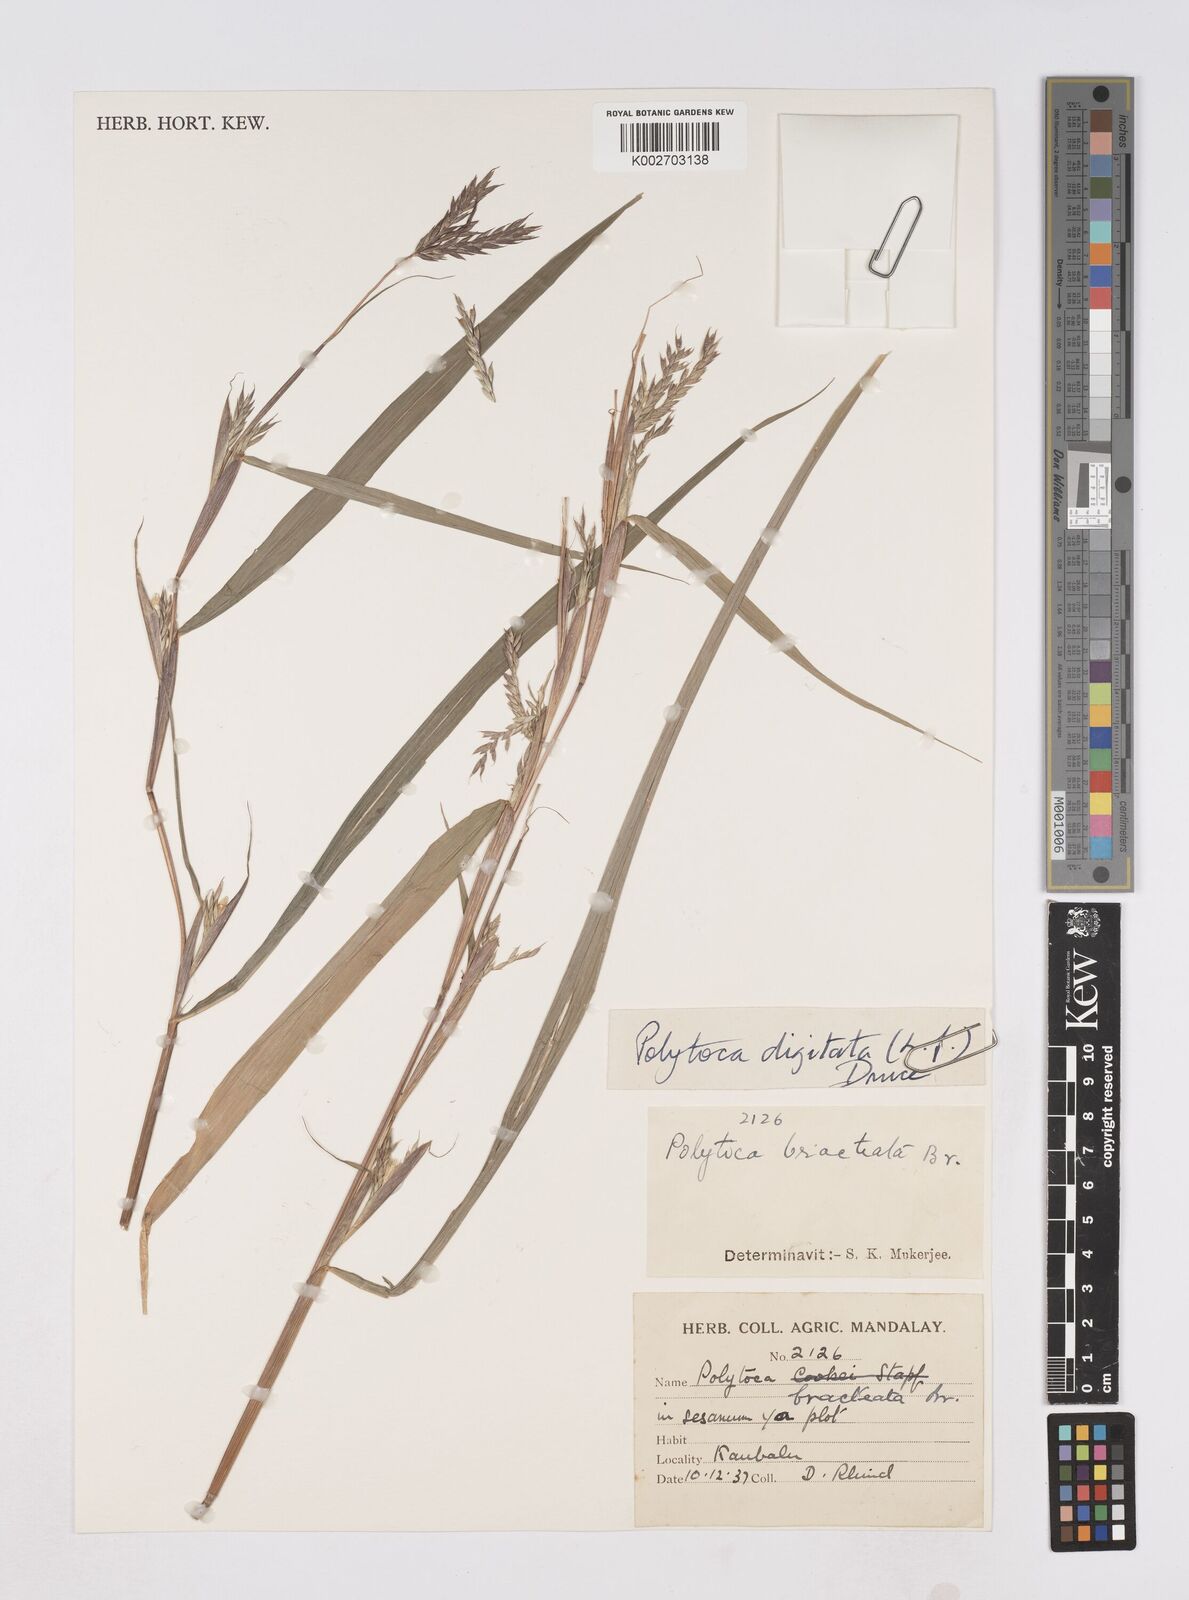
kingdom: Plantae
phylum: Tracheophyta
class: Liliopsida
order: Poales
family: Poaceae
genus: Polytoca
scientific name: Polytoca digitata
